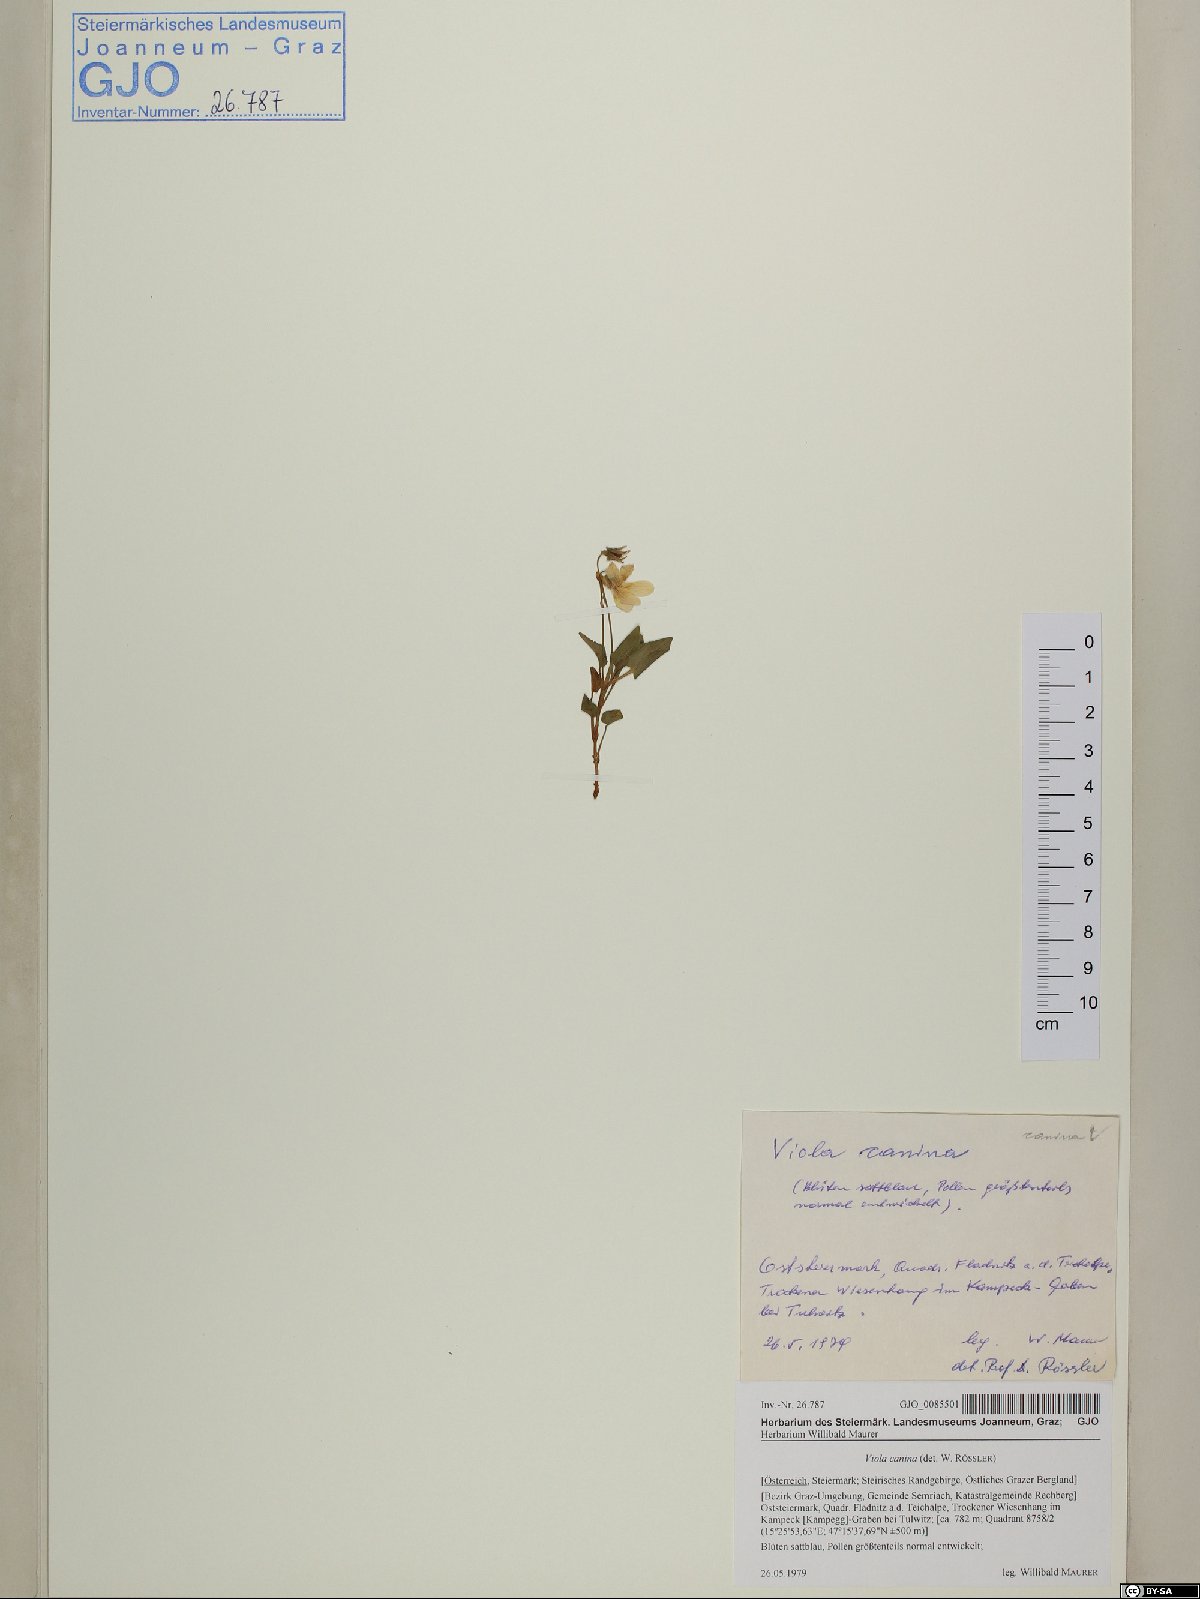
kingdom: Plantae
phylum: Tracheophyta
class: Magnoliopsida
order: Malpighiales
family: Violaceae
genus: Viola
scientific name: Viola canina
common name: Heath dog-violet
